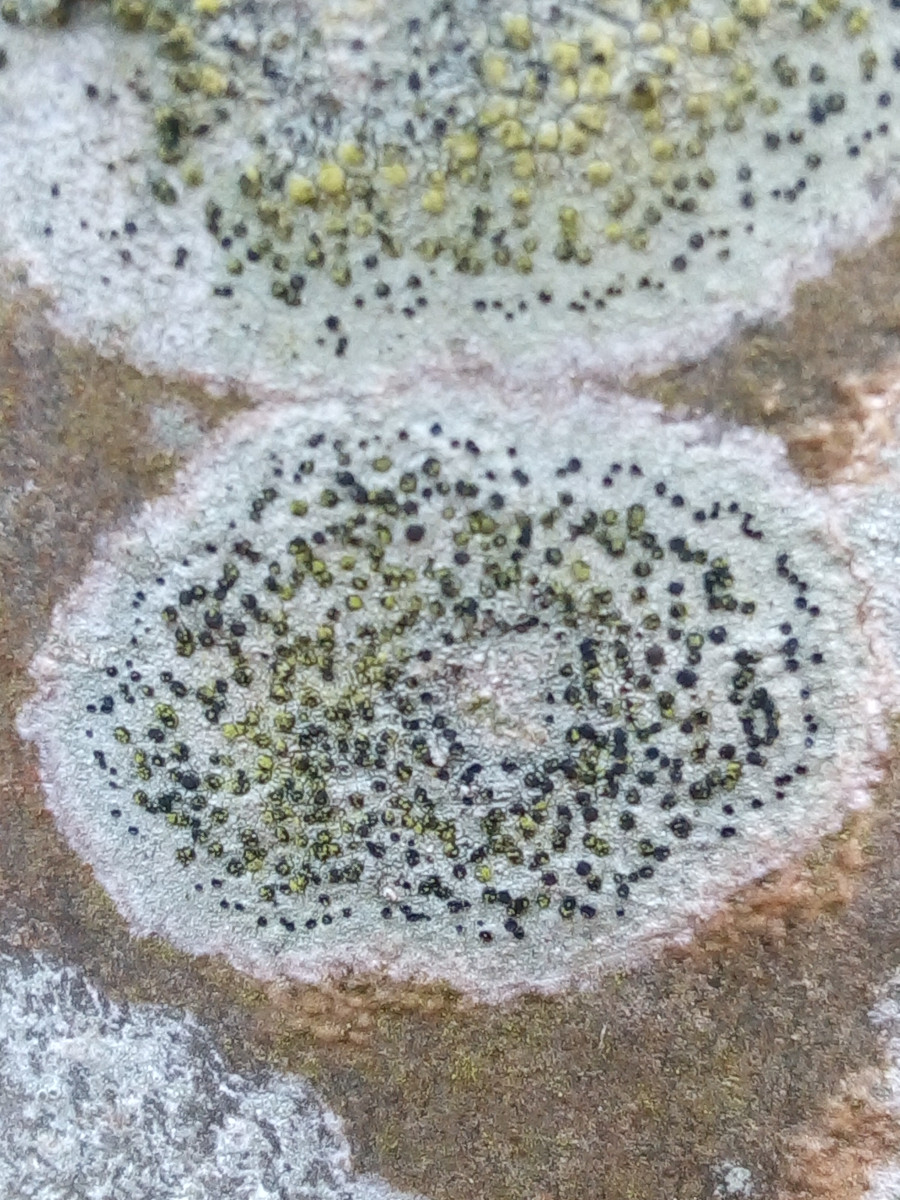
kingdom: Fungi
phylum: Ascomycota
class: Lecanoromycetes
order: Lecanorales
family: Lecanoraceae
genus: Lecidella
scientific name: Lecidella elaeochroma
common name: grågrøn skivelav
